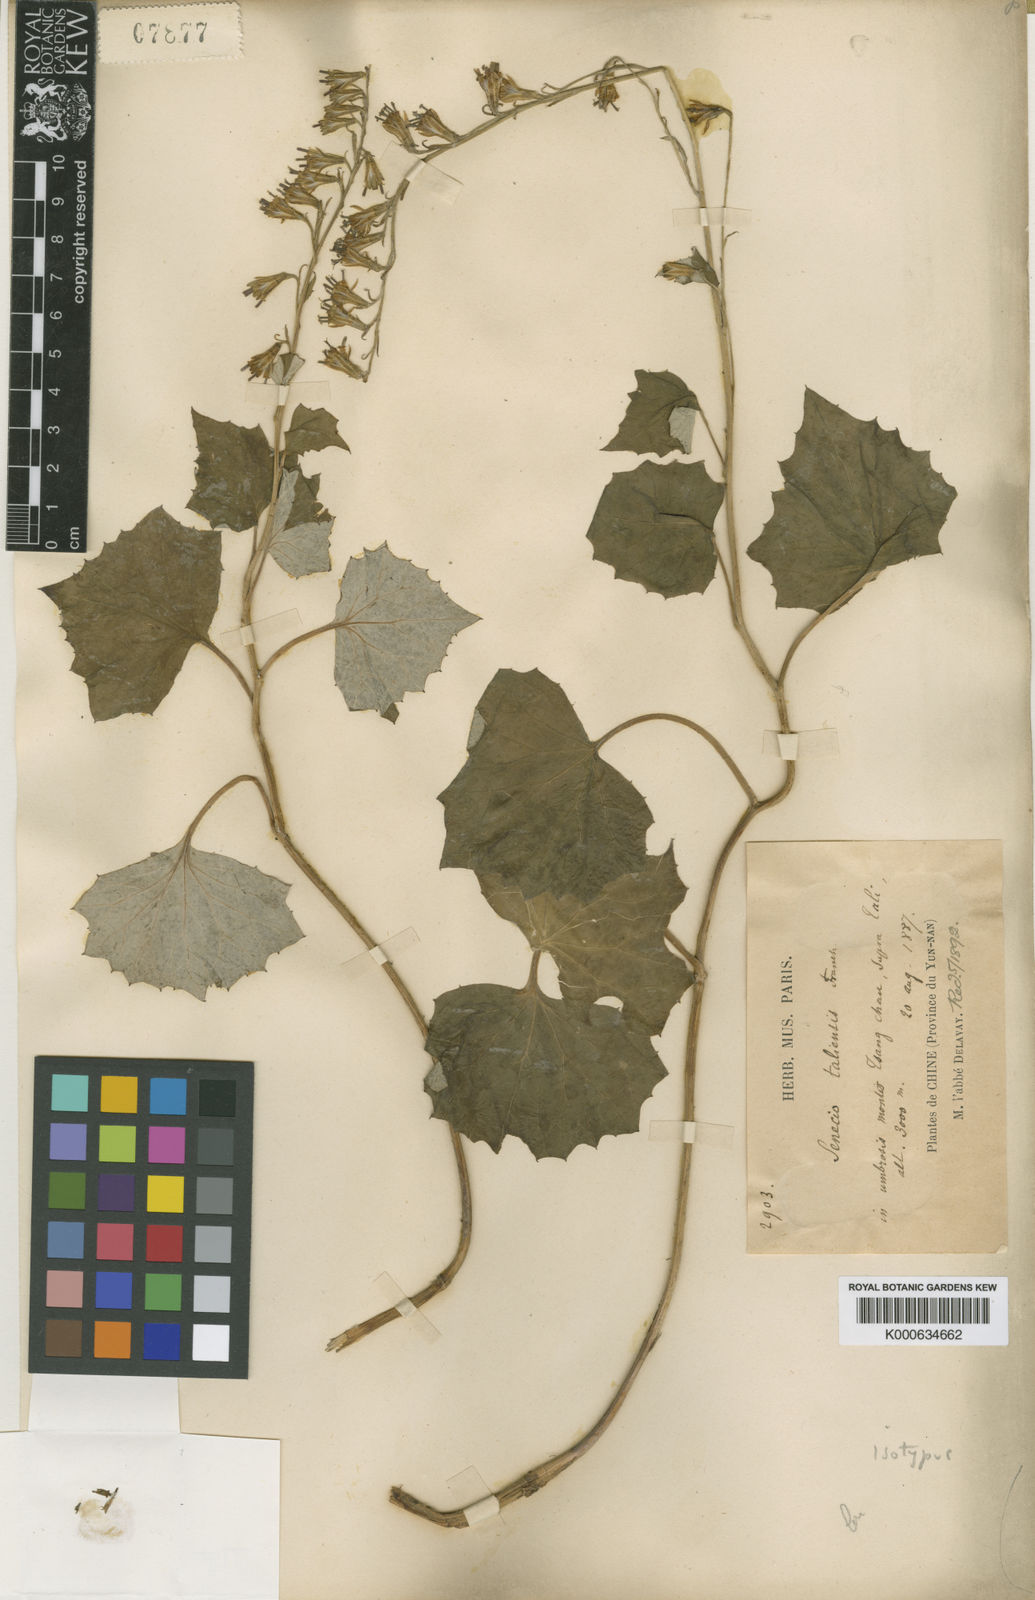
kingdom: Plantae
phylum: Tracheophyta
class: Magnoliopsida
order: Asterales
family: Asteraceae
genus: Parasenecio
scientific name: Parasenecio taliensis
